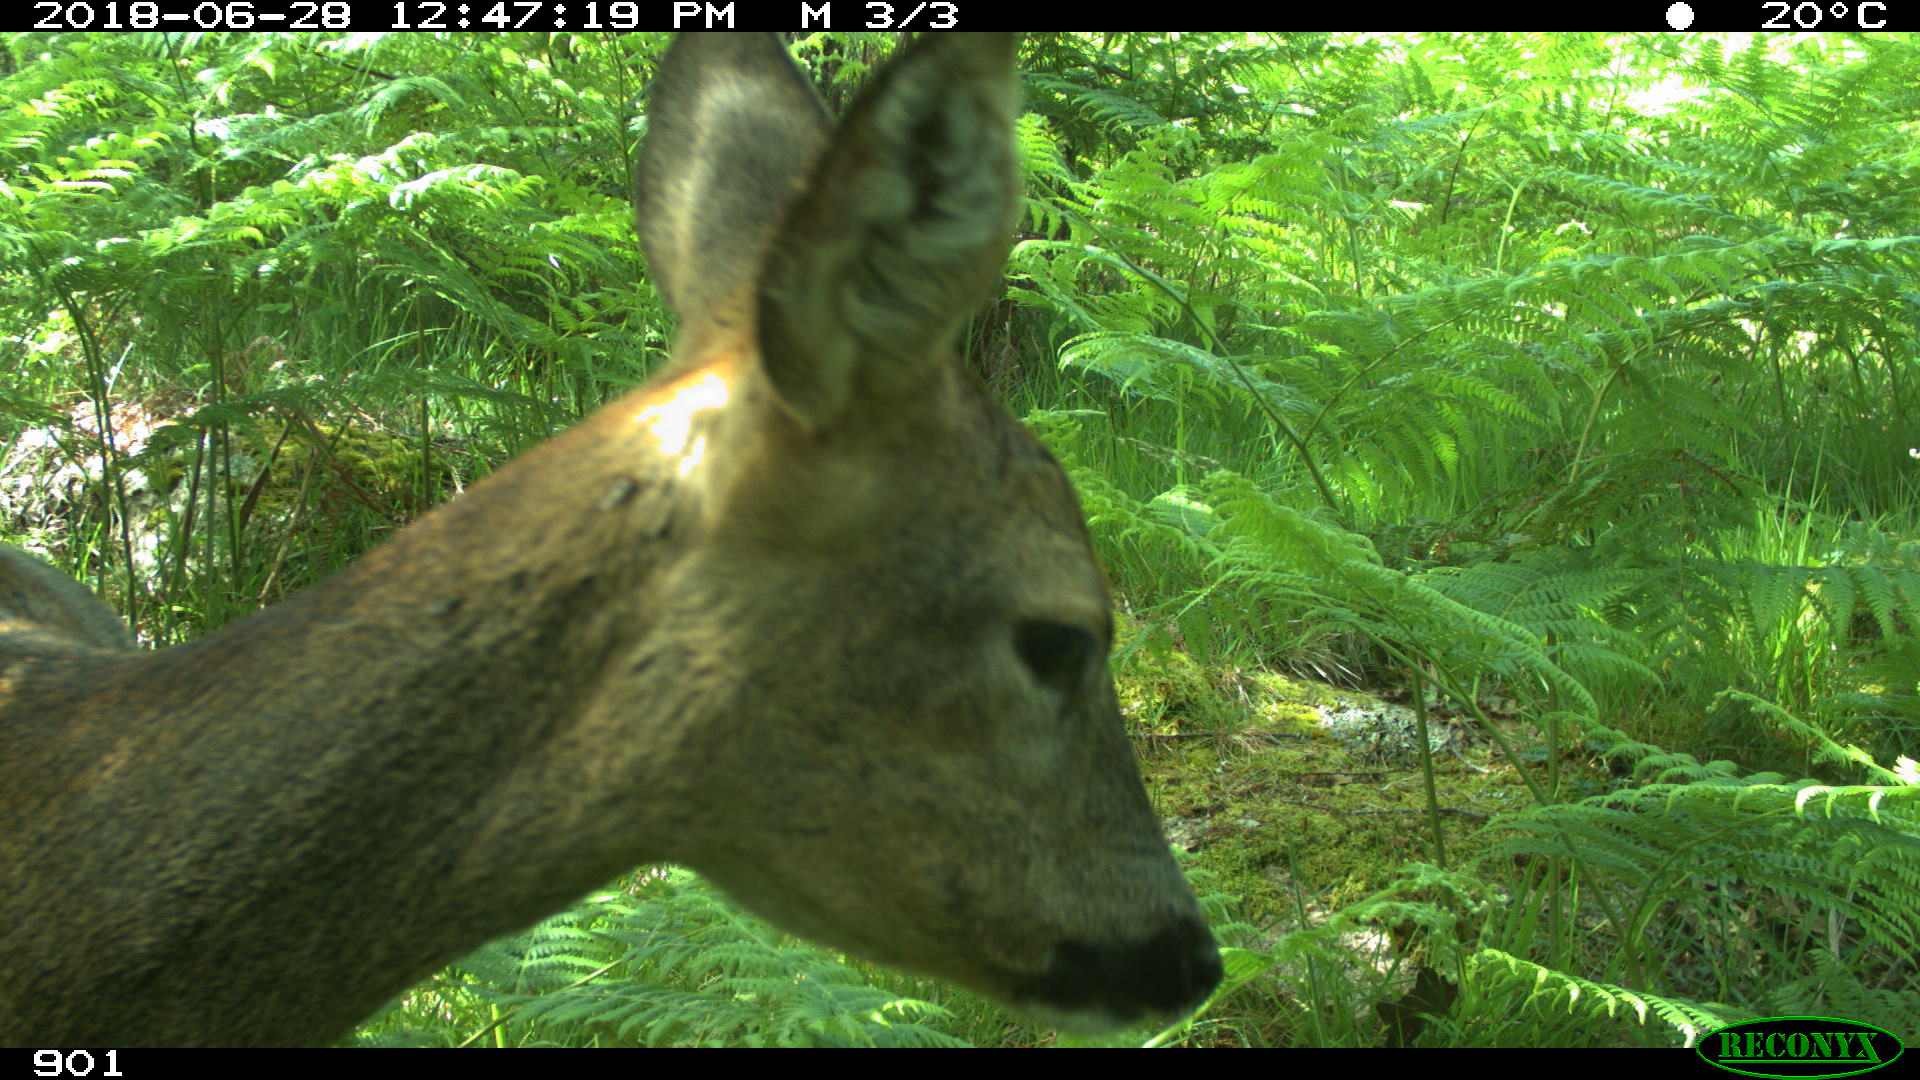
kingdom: Animalia
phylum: Chordata
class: Mammalia
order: Artiodactyla
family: Cervidae
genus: Capreolus
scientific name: Capreolus capreolus
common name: Western roe deer
